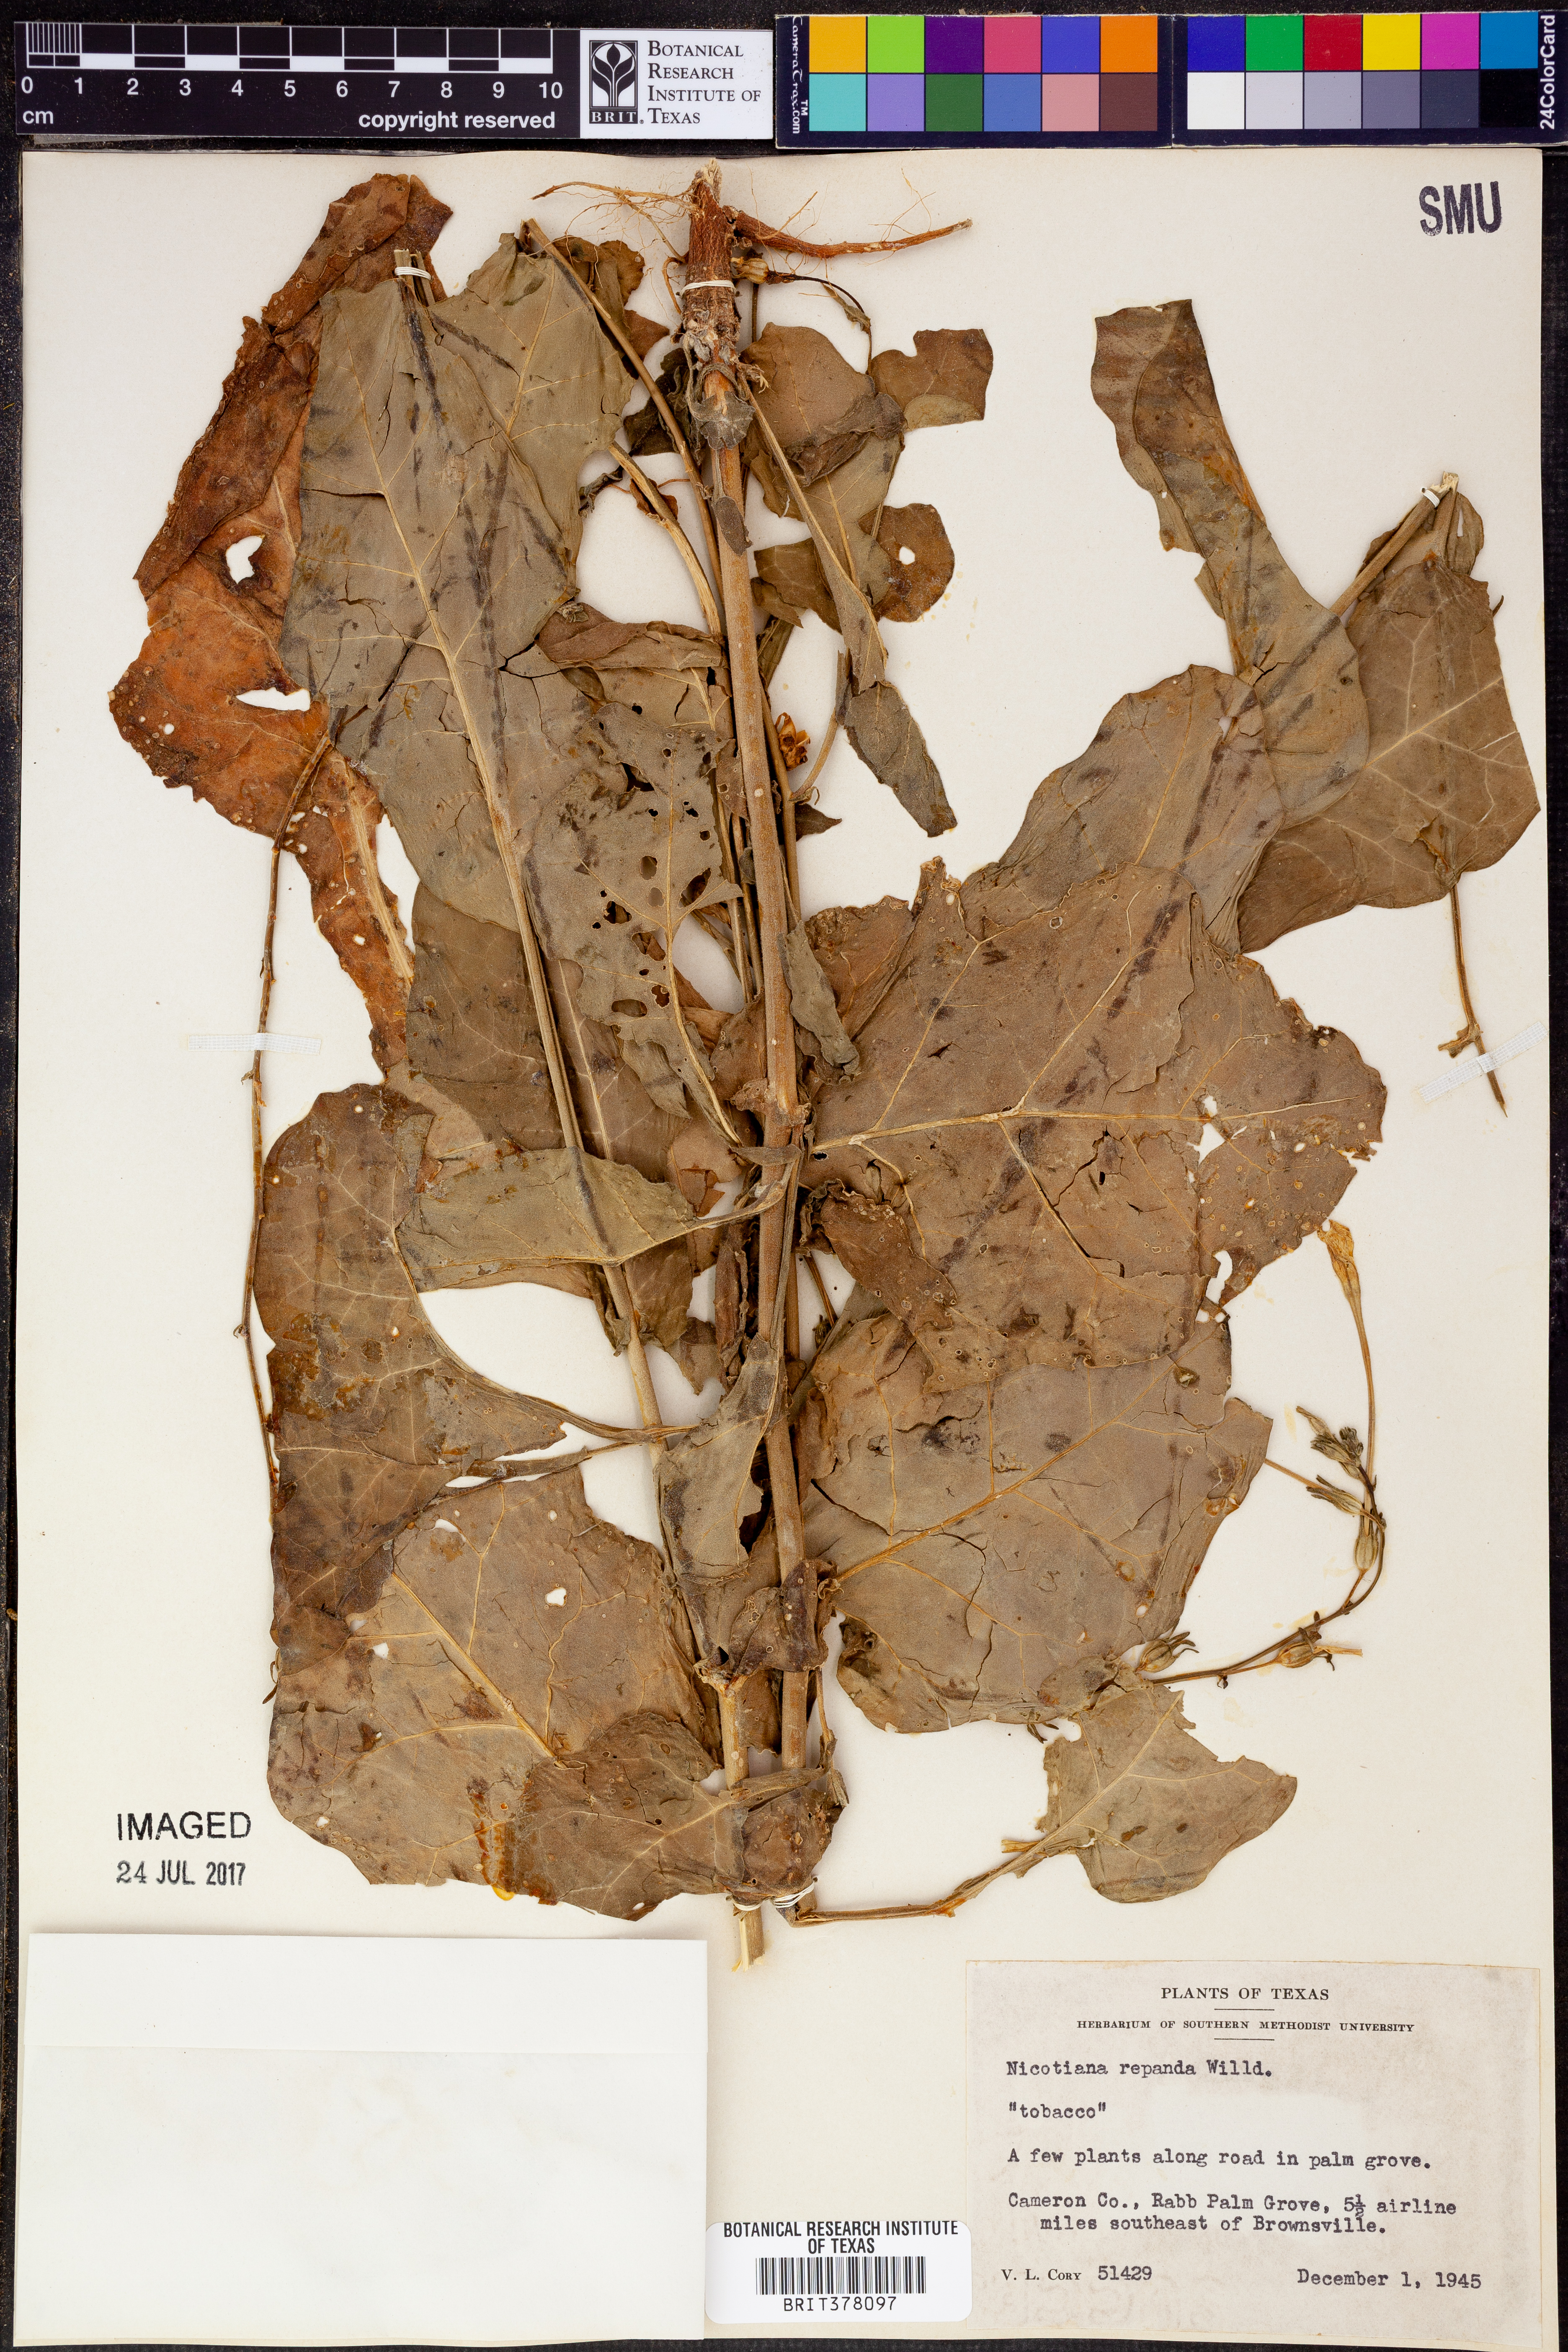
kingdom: Plantae
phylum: Tracheophyta
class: Magnoliopsida
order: Solanales
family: Solanaceae
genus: Nicotiana
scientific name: Nicotiana repanda
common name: Fiddle-leaf tobacco
